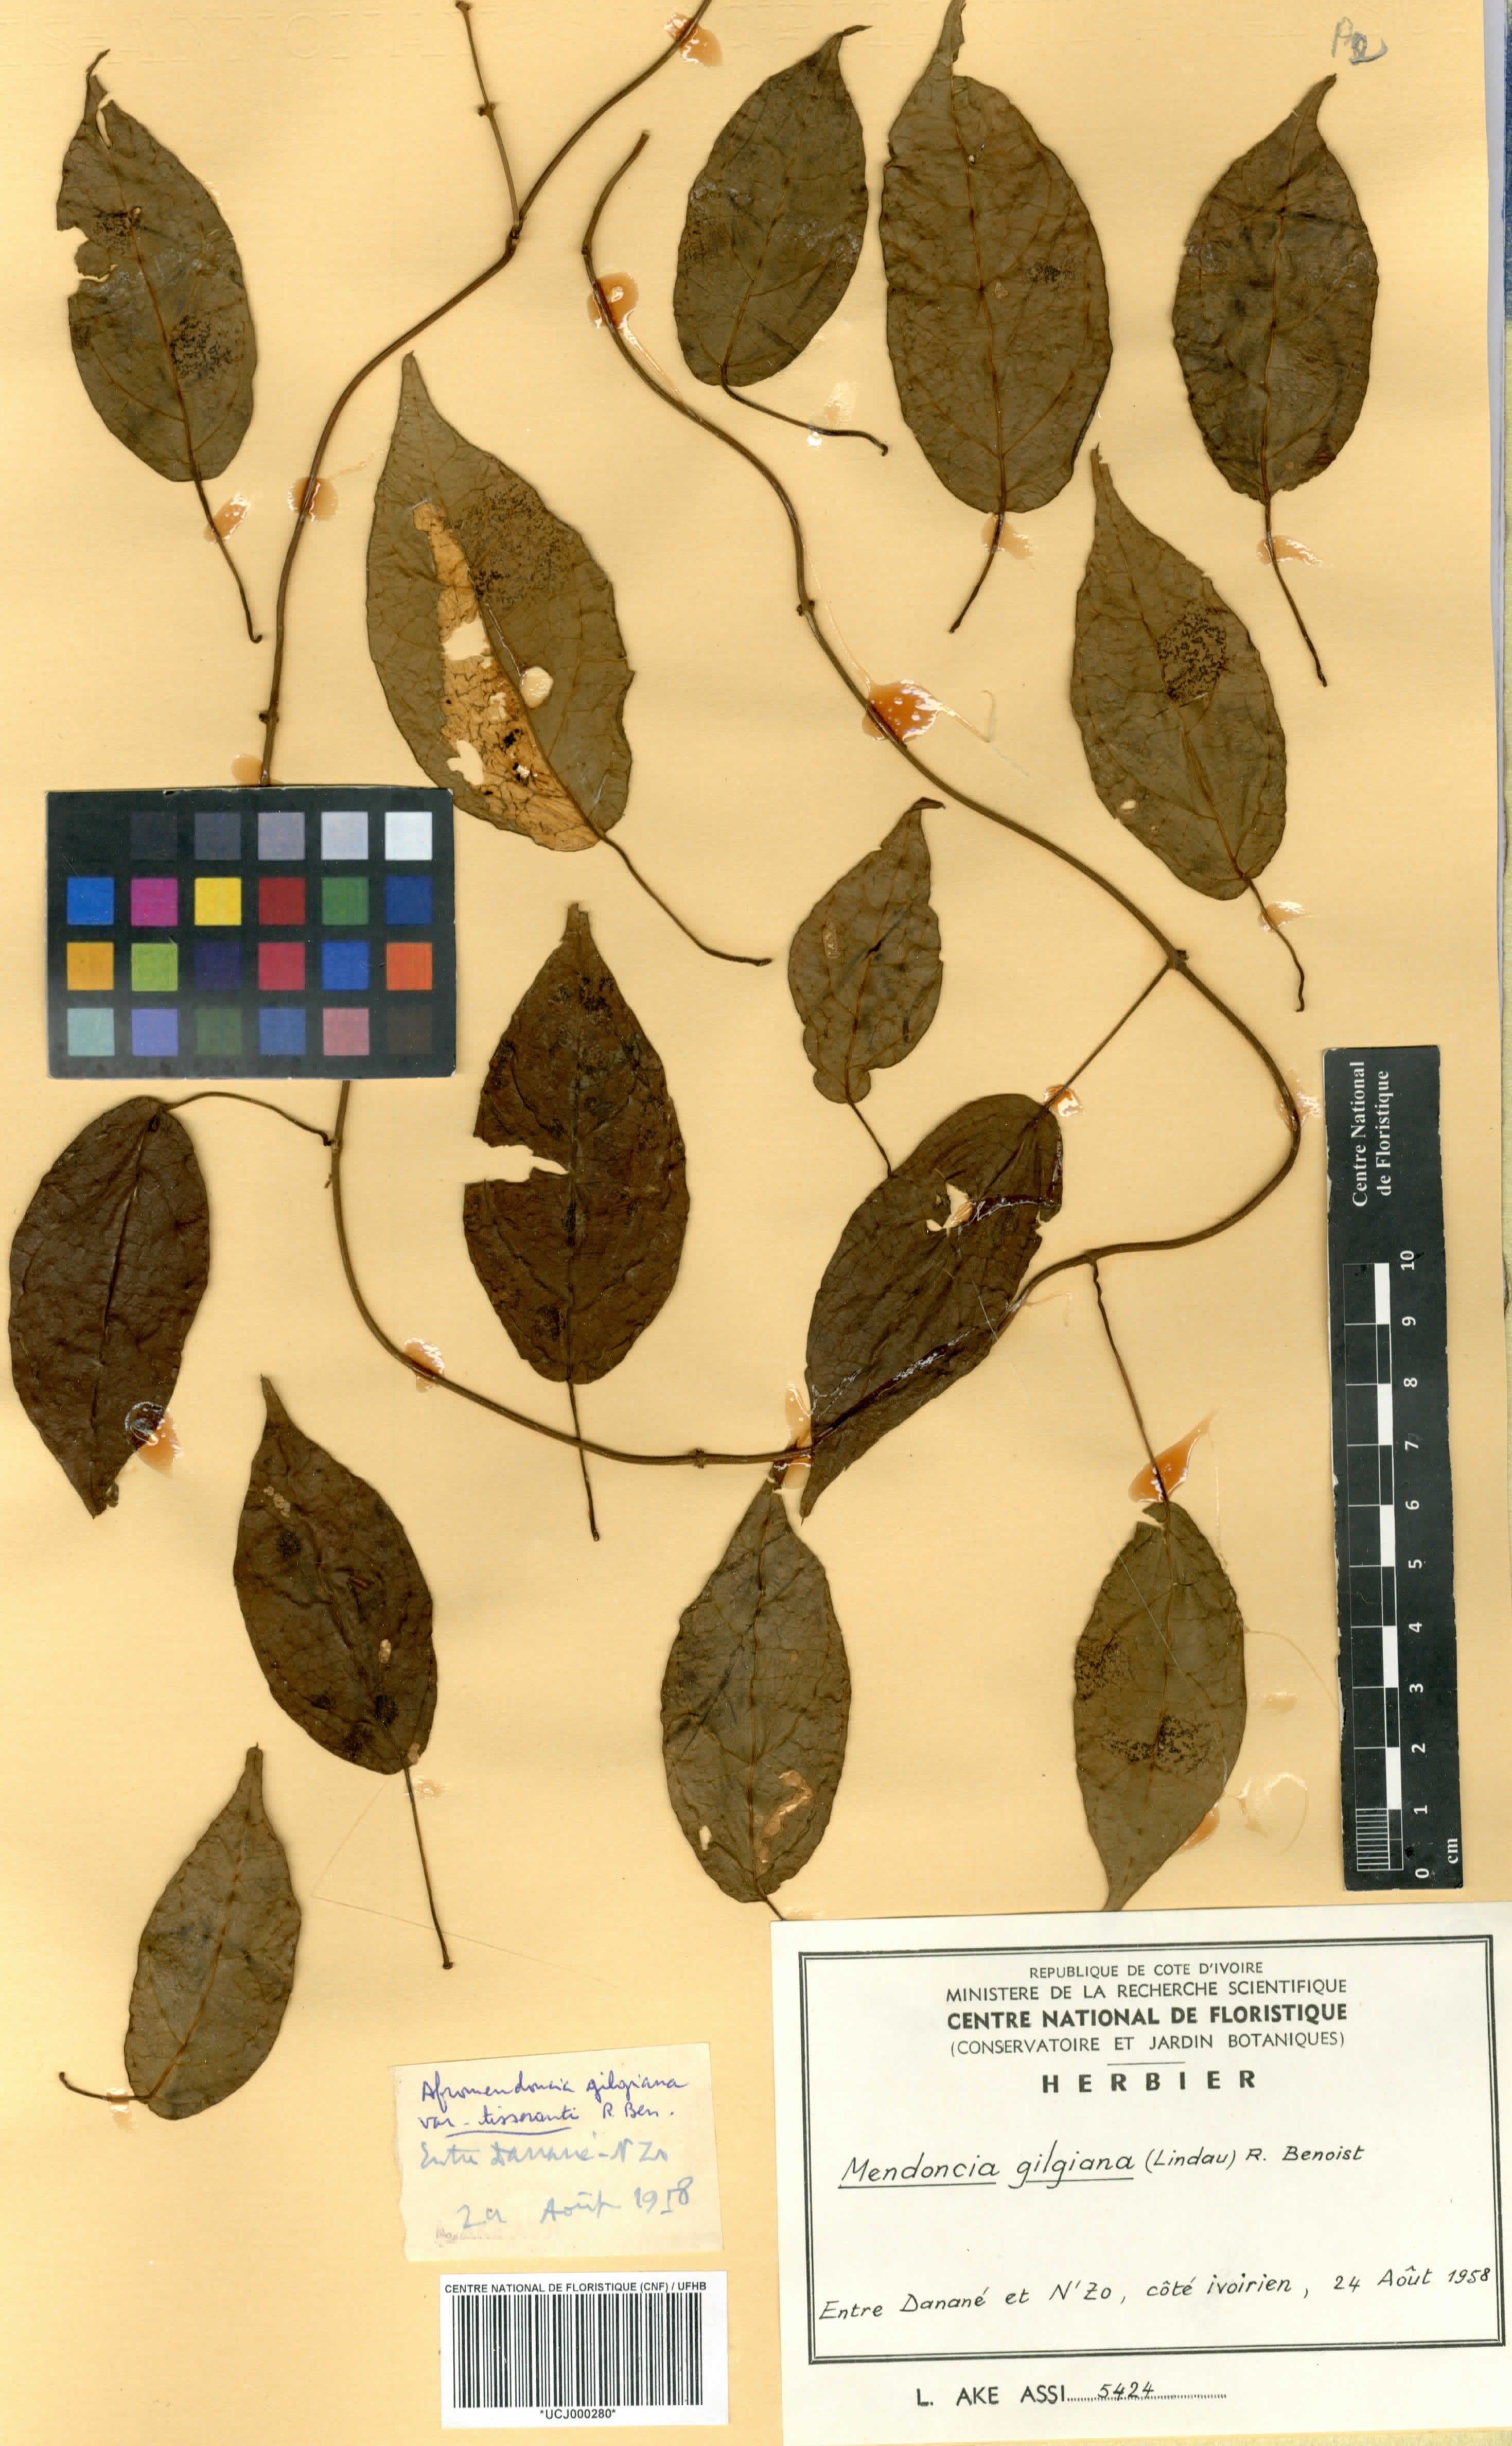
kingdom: Plantae
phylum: Tracheophyta
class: Magnoliopsida
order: Lamiales
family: Acanthaceae
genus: Mendoncia
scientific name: Mendoncia gilgiana
